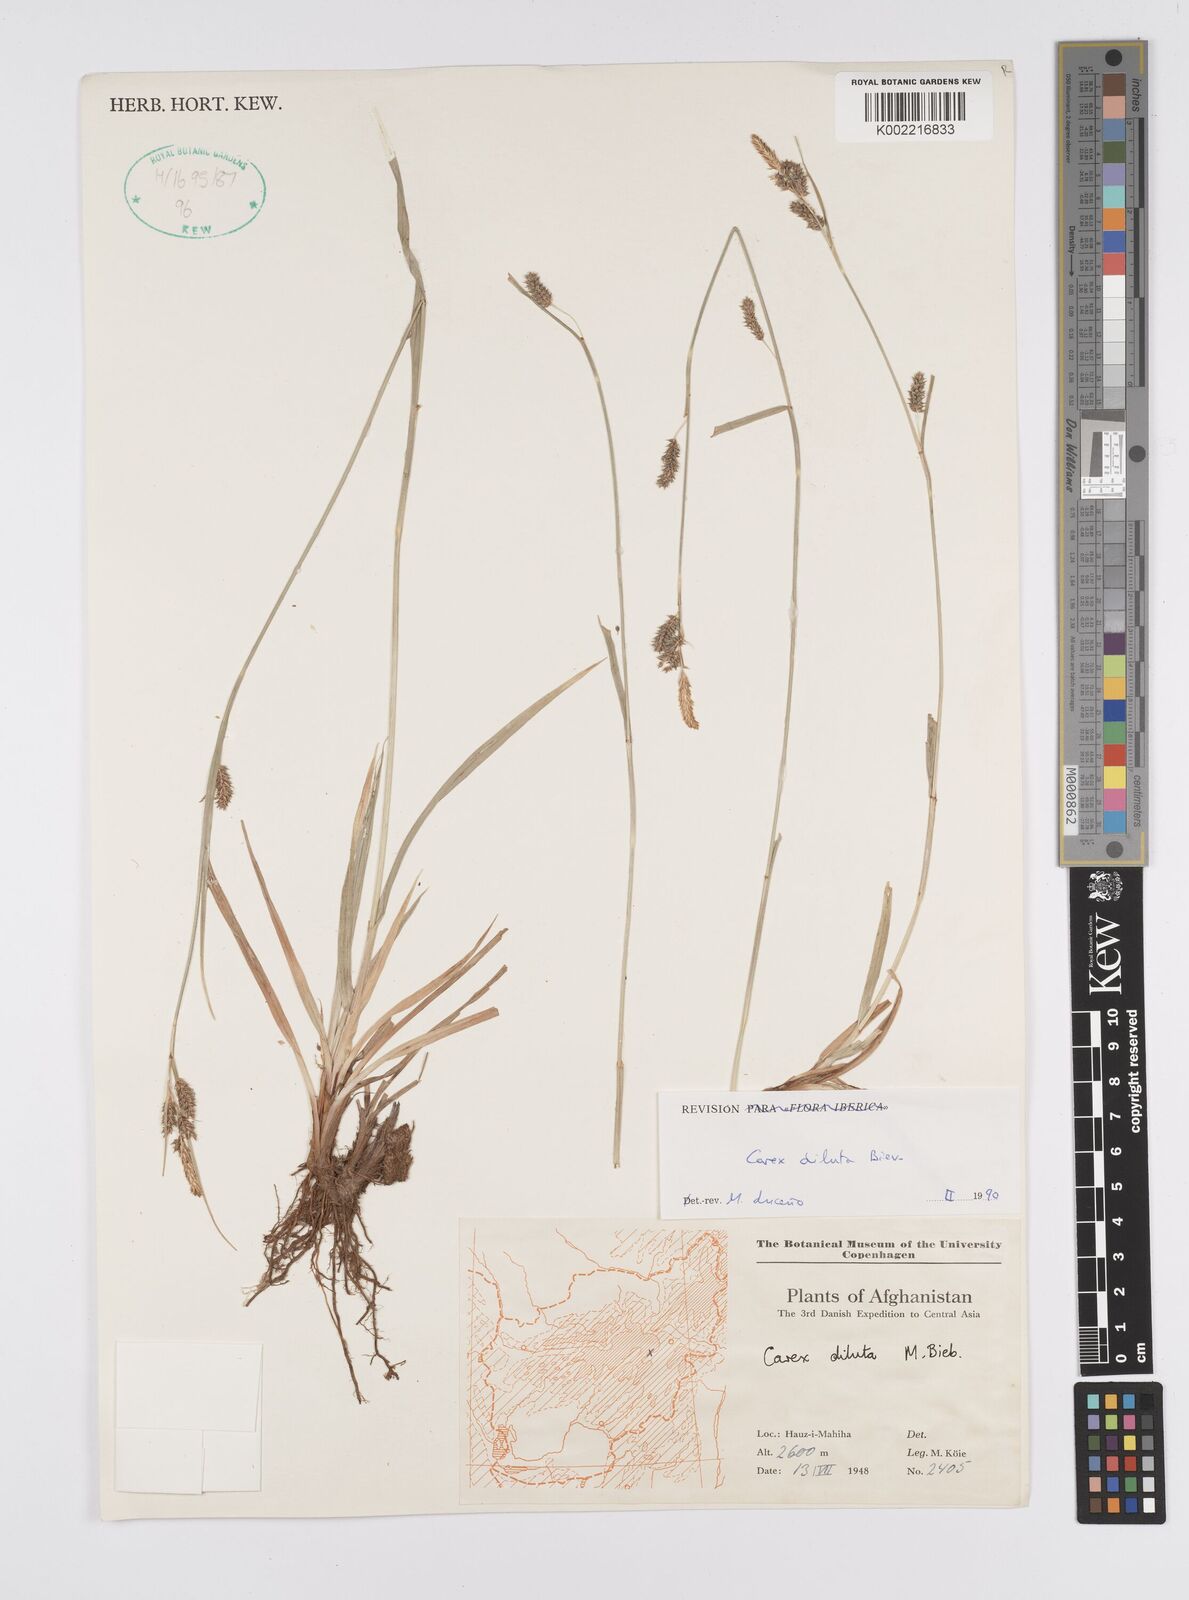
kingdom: Plantae
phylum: Tracheophyta
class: Liliopsida
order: Poales
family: Cyperaceae
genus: Carex
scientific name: Carex diluta
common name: Sedge
